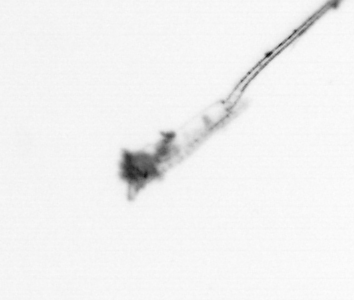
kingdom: Animalia
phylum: Arthropoda
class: Maxillopoda
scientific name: Maxillopoda
